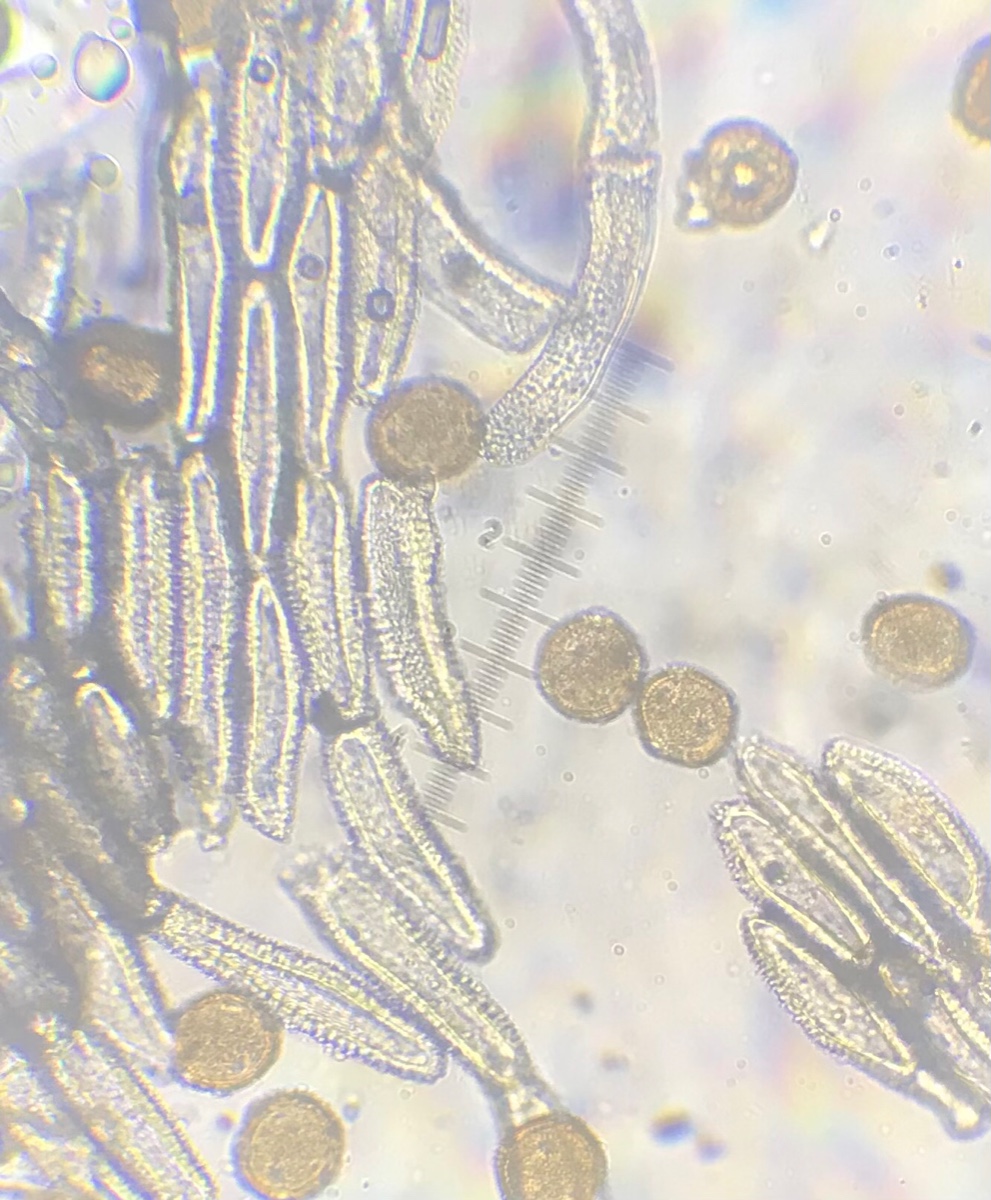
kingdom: Fungi
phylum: Basidiomycota
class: Pucciniomycetes
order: Pucciniales
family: Gymnosporangiaceae
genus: Gymnosporangium
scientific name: Gymnosporangium confusum
